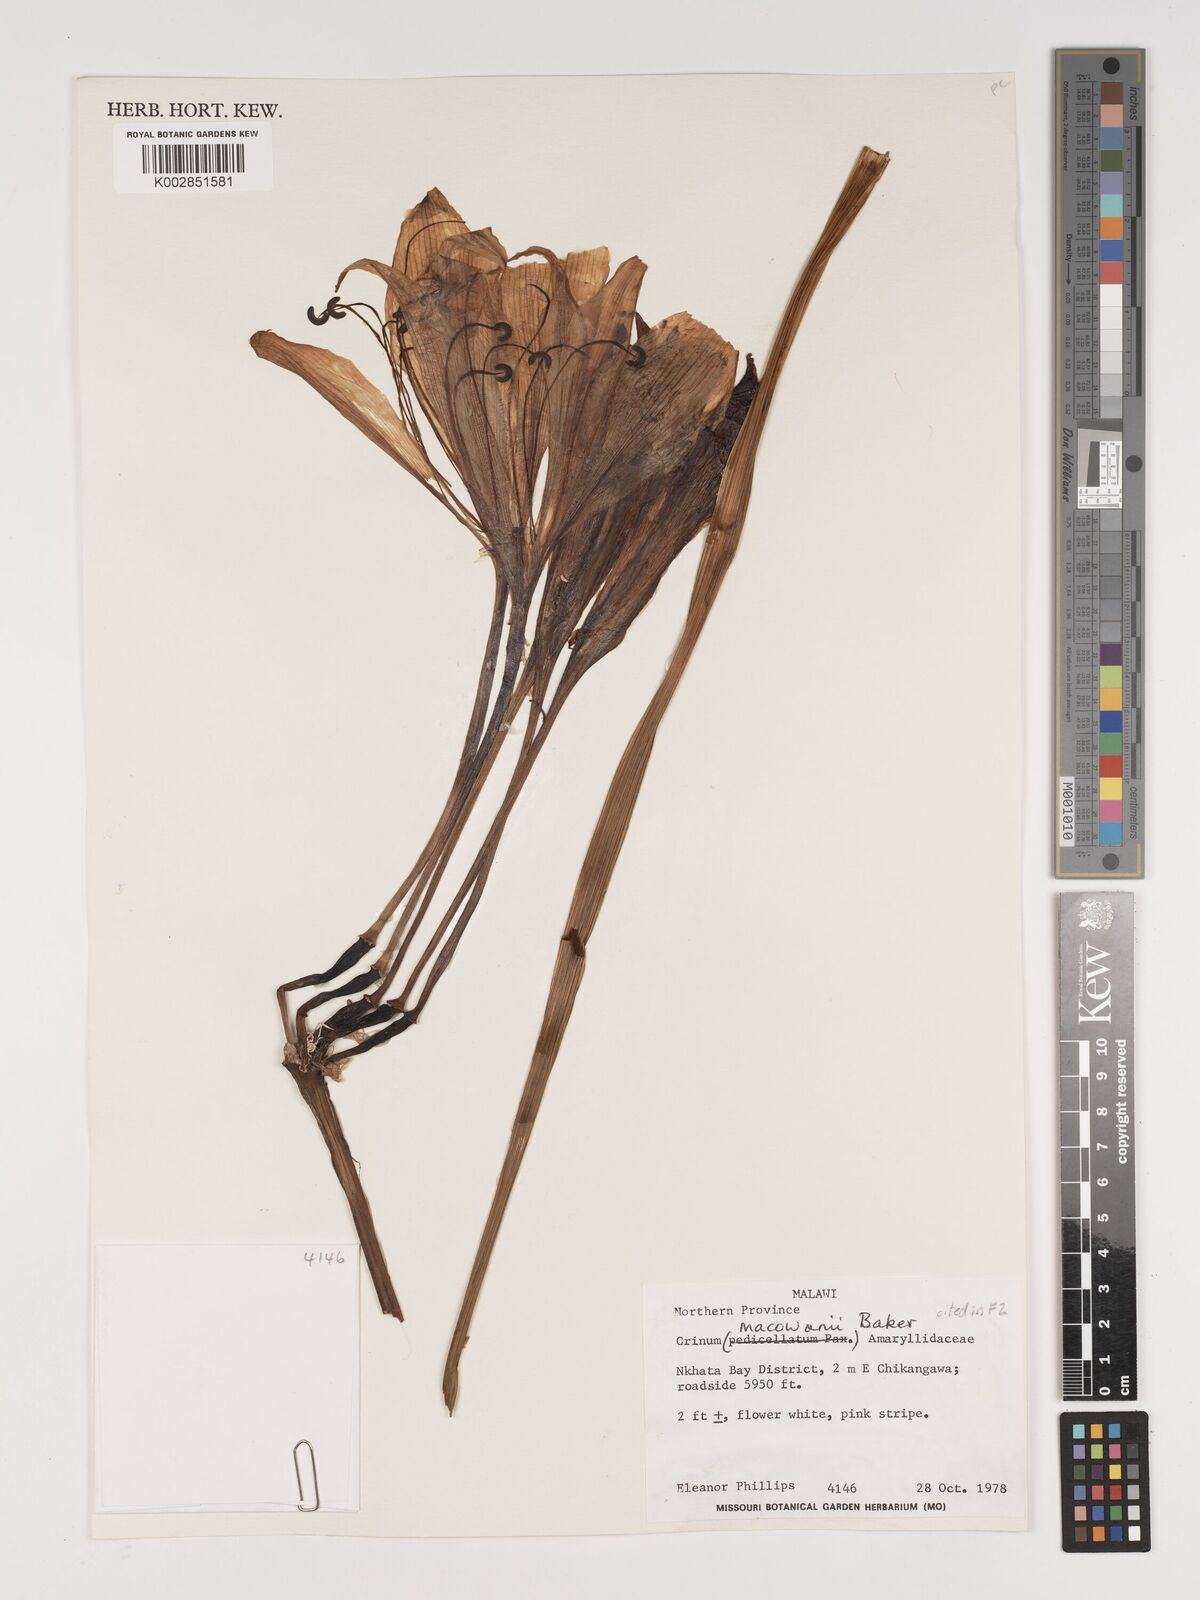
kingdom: Plantae
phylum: Tracheophyta
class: Liliopsida
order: Asparagales
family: Amaryllidaceae
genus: Crinum
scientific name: Crinum macowanii
